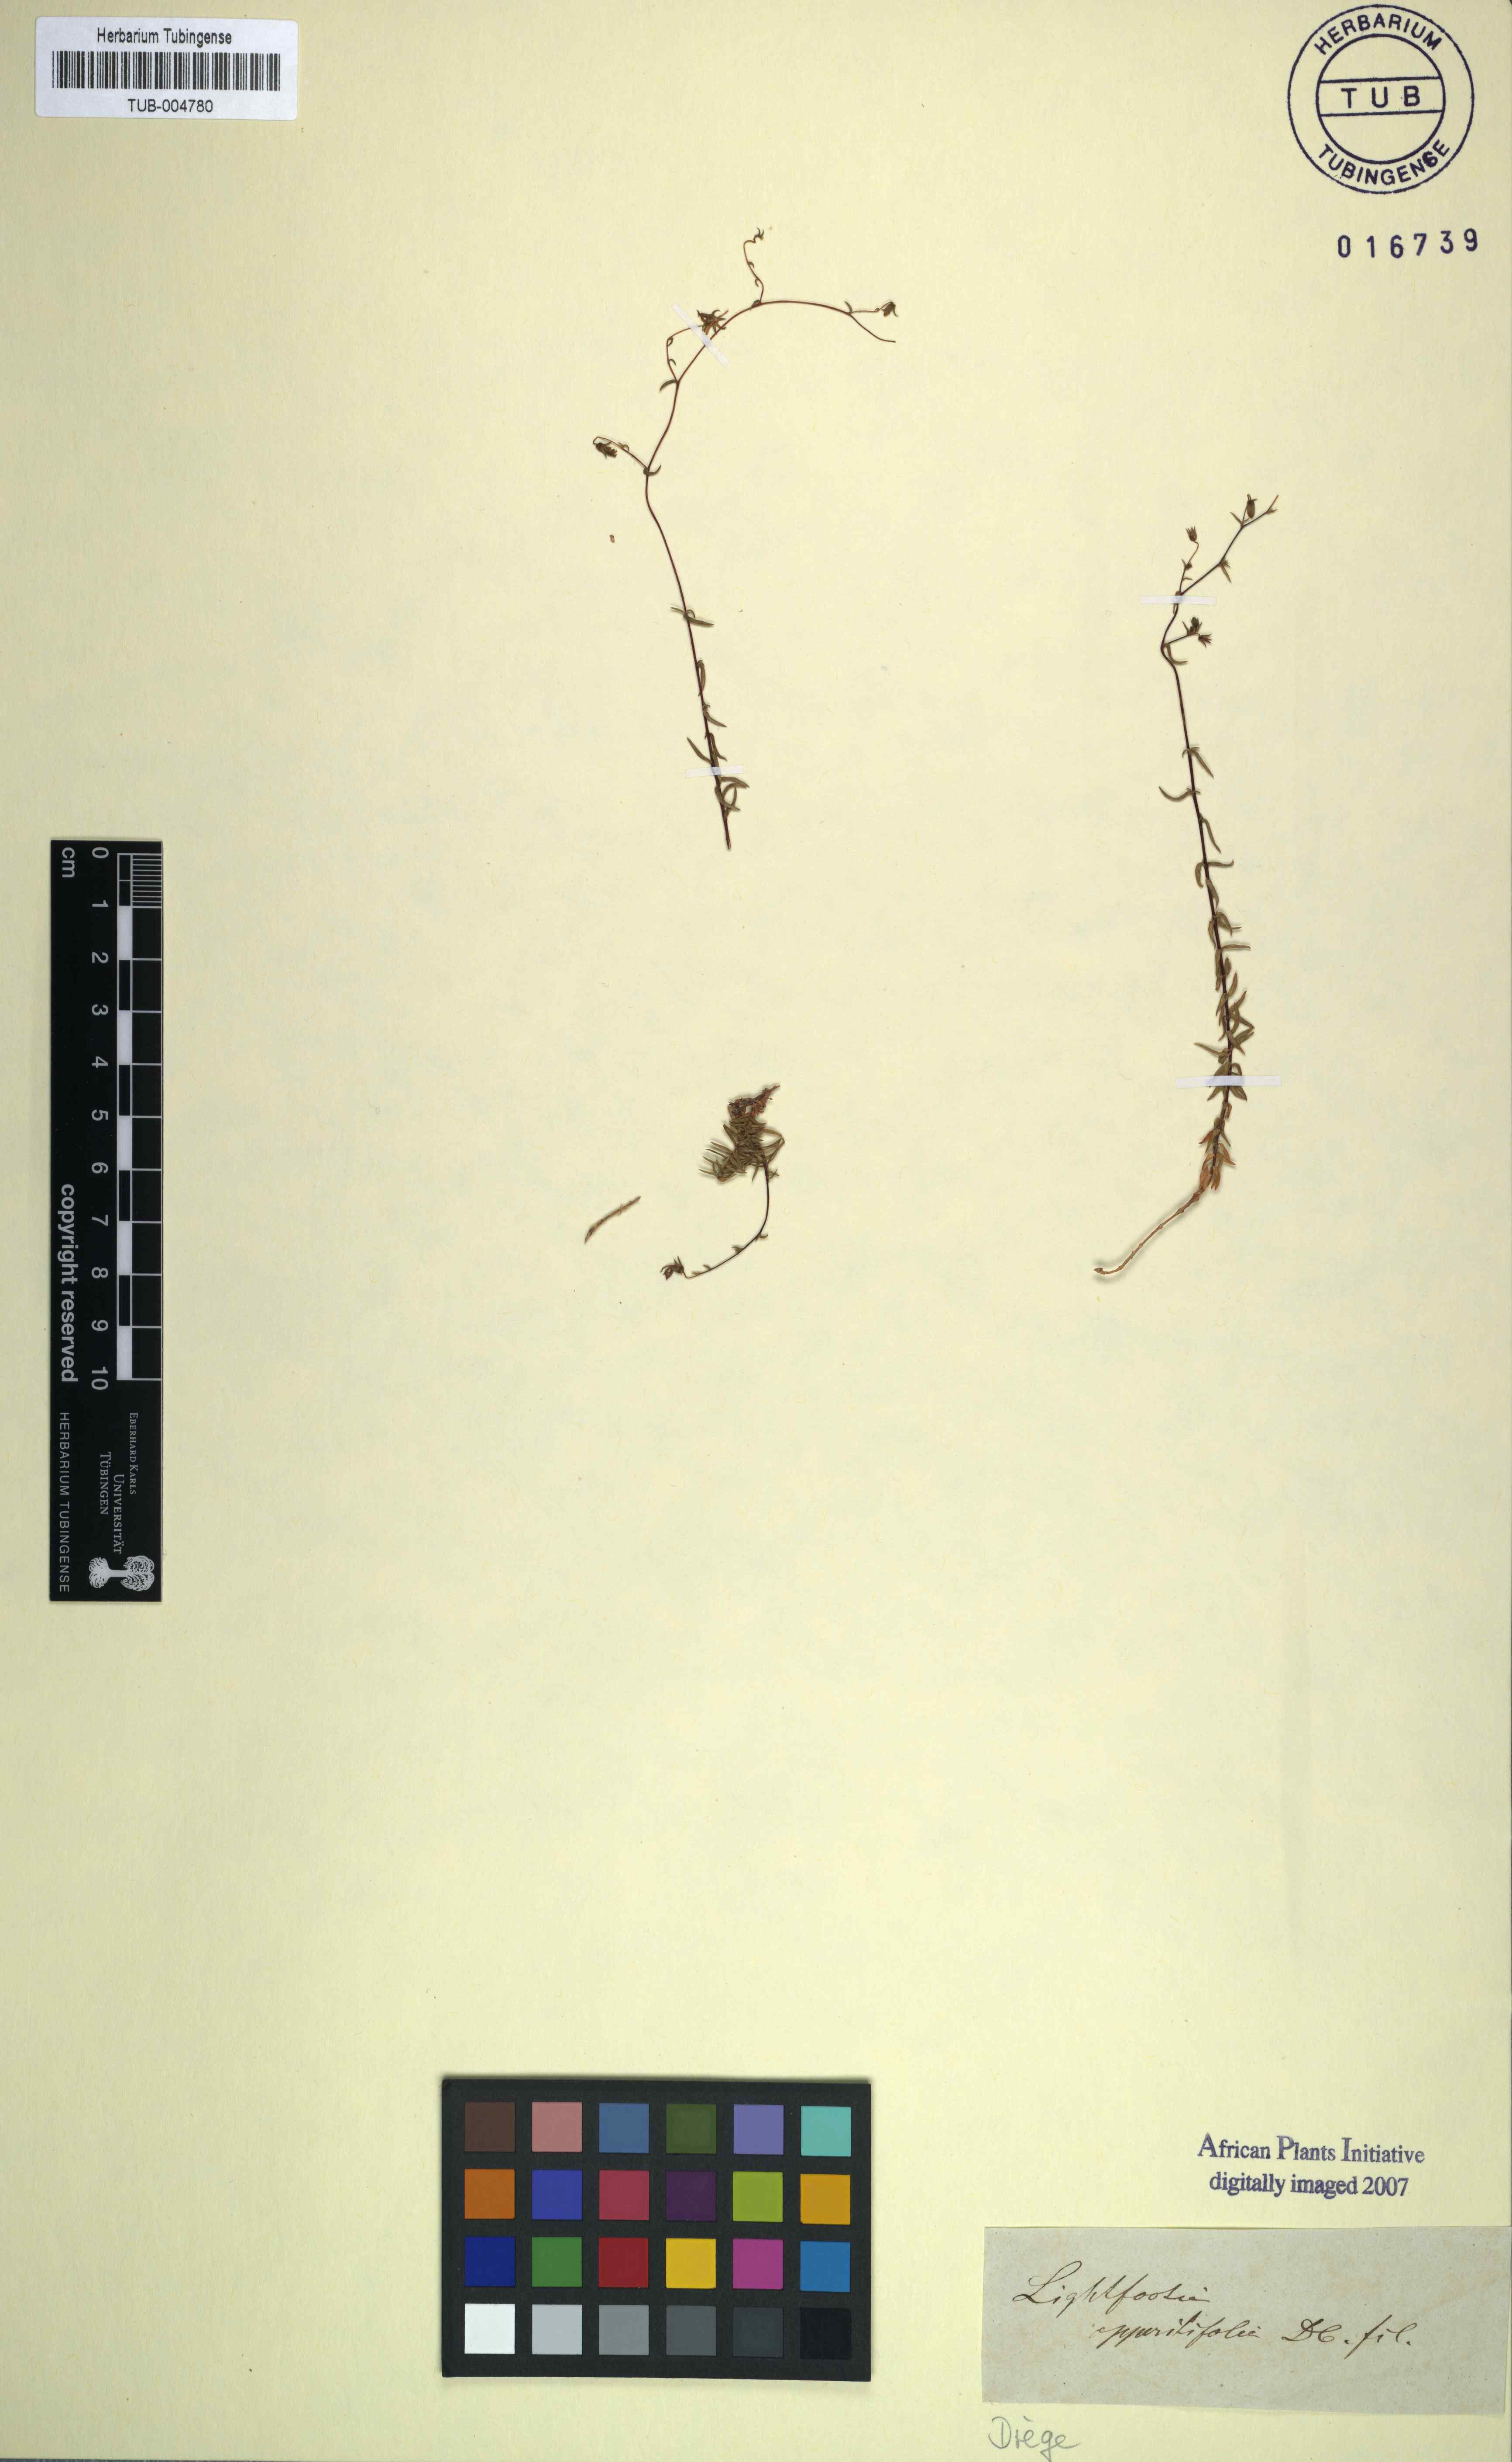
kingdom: Plantae
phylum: Tracheophyta
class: Magnoliopsida
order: Asterales
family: Campanulaceae
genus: Wahlenbergia
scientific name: Wahlenbergia thulinii
